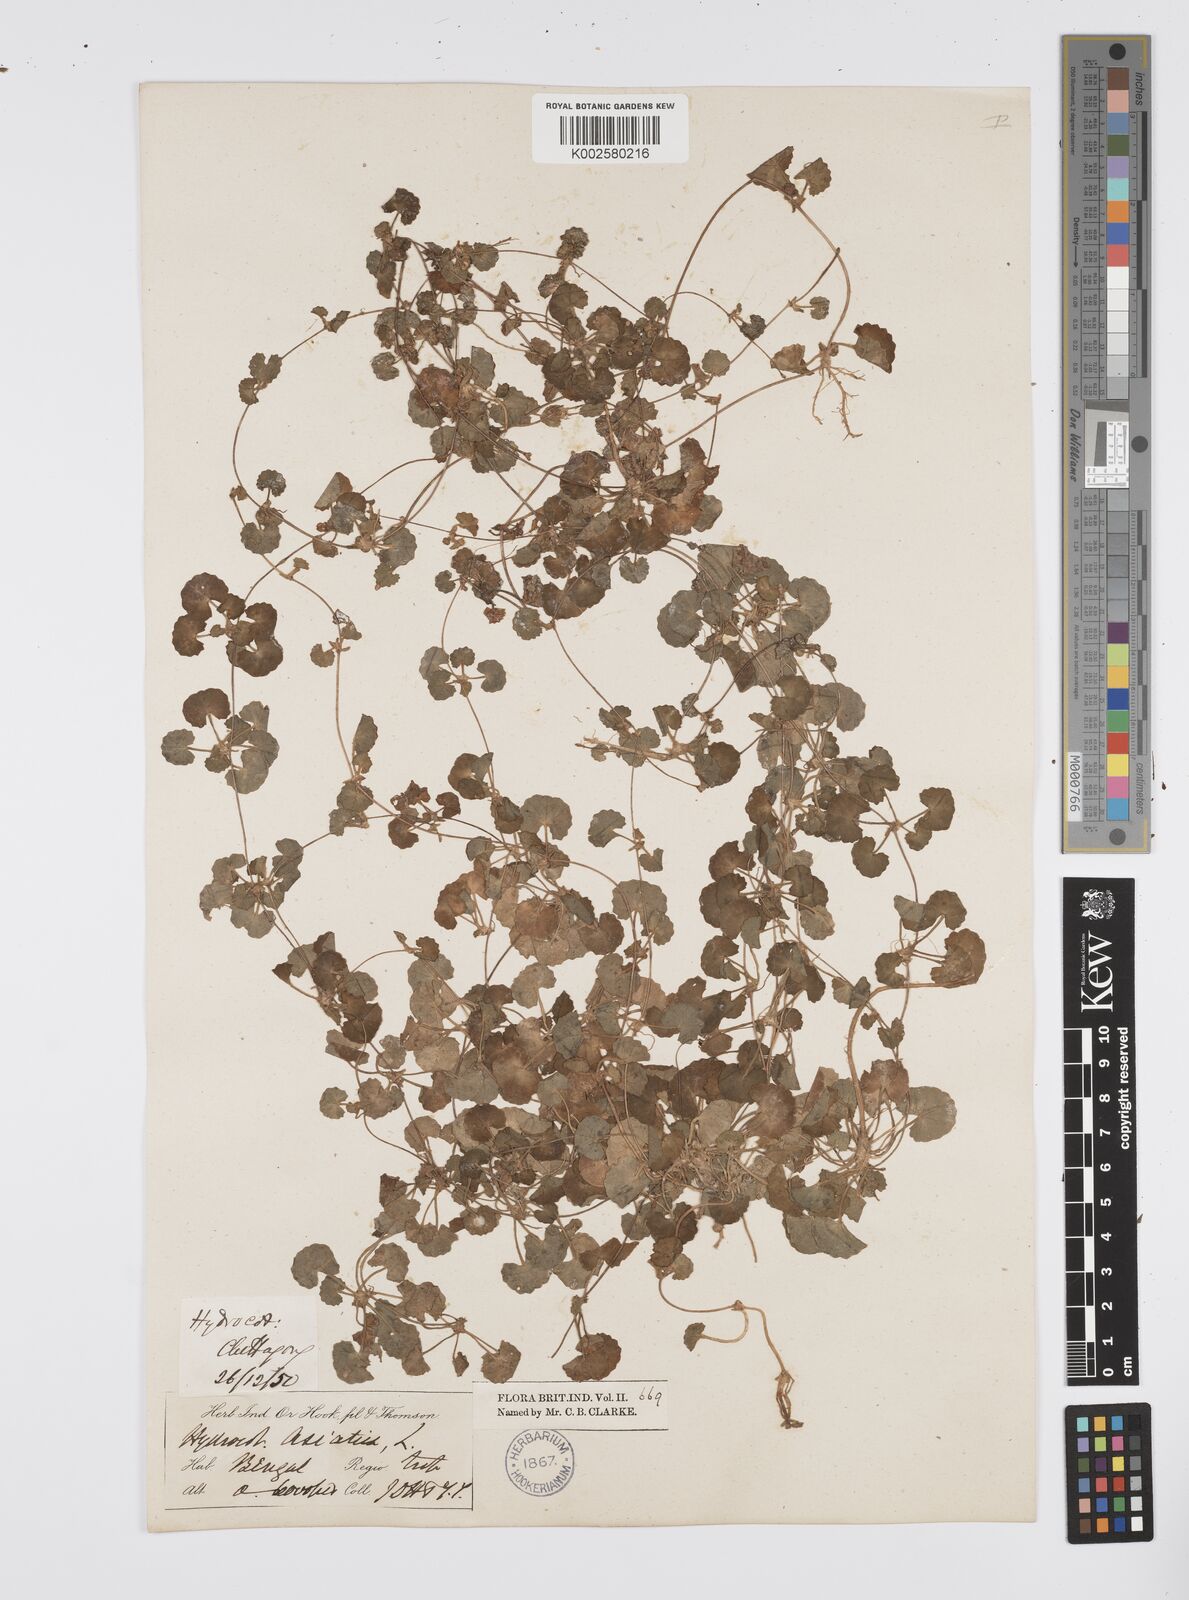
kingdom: Plantae
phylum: Tracheophyta
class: Magnoliopsida
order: Apiales
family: Apiaceae
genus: Centella
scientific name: Centella asiatica
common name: Spadeleaf
